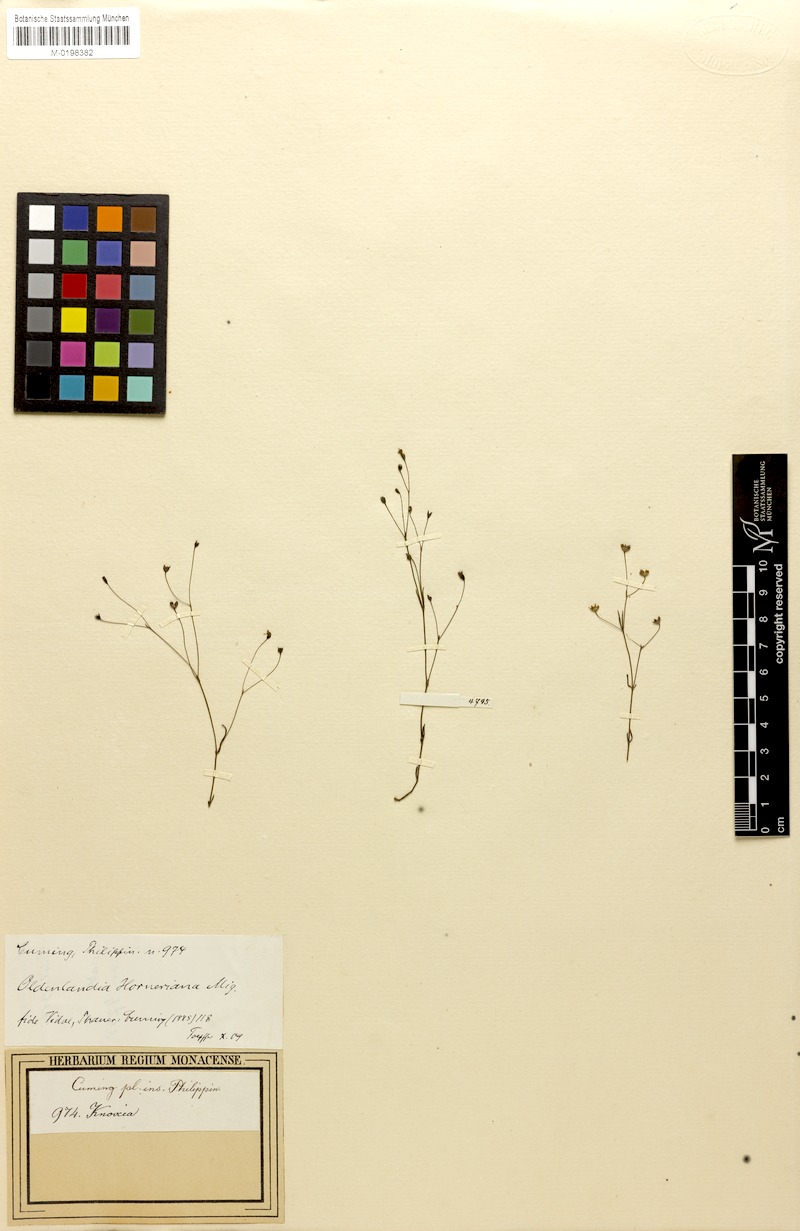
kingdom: Plantae
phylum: Tracheophyta
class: Magnoliopsida
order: Gentianales
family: Rubiaceae
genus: Scleromitrion
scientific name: Scleromitrion subulatum
